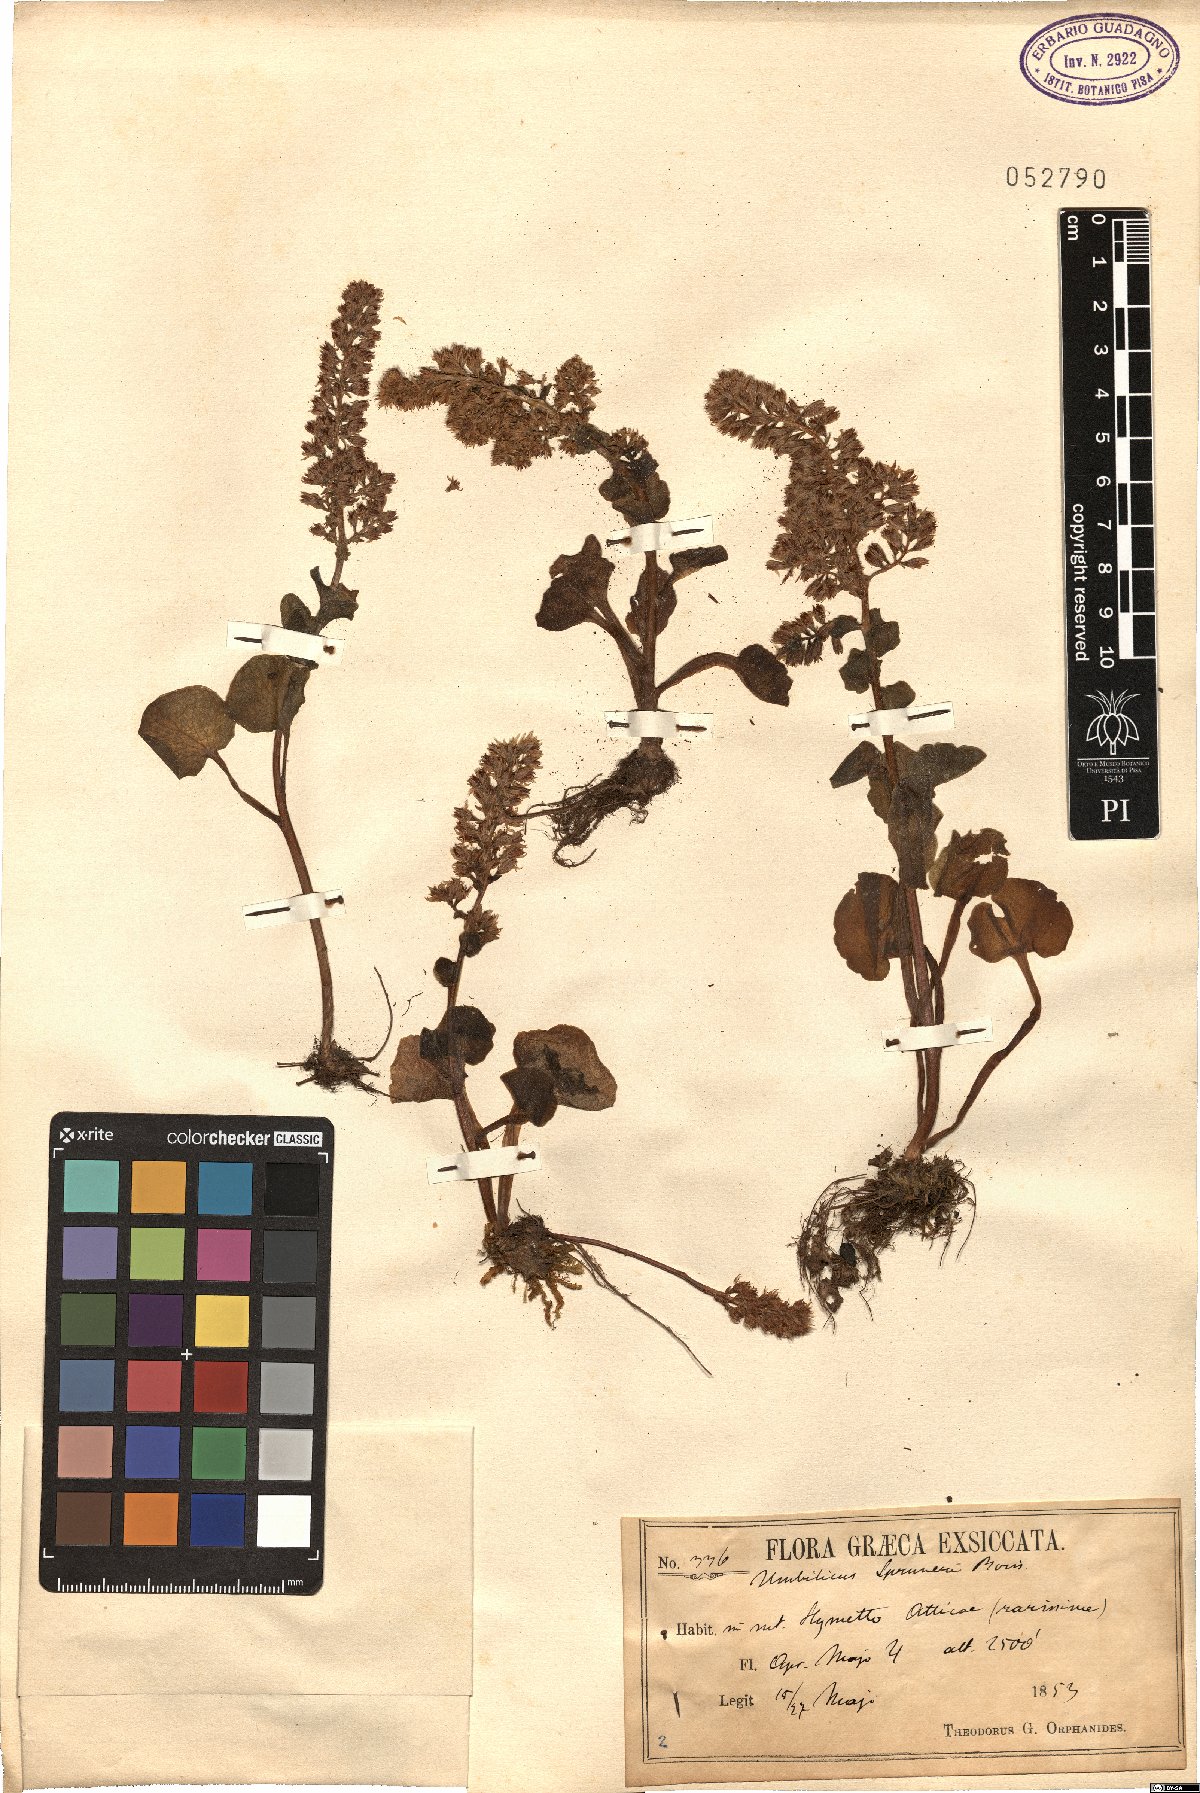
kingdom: Plantae
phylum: Tracheophyta
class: Magnoliopsida
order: Saxifragales
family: Crassulaceae
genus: Umbilicus
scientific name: Umbilicus parviflorus
